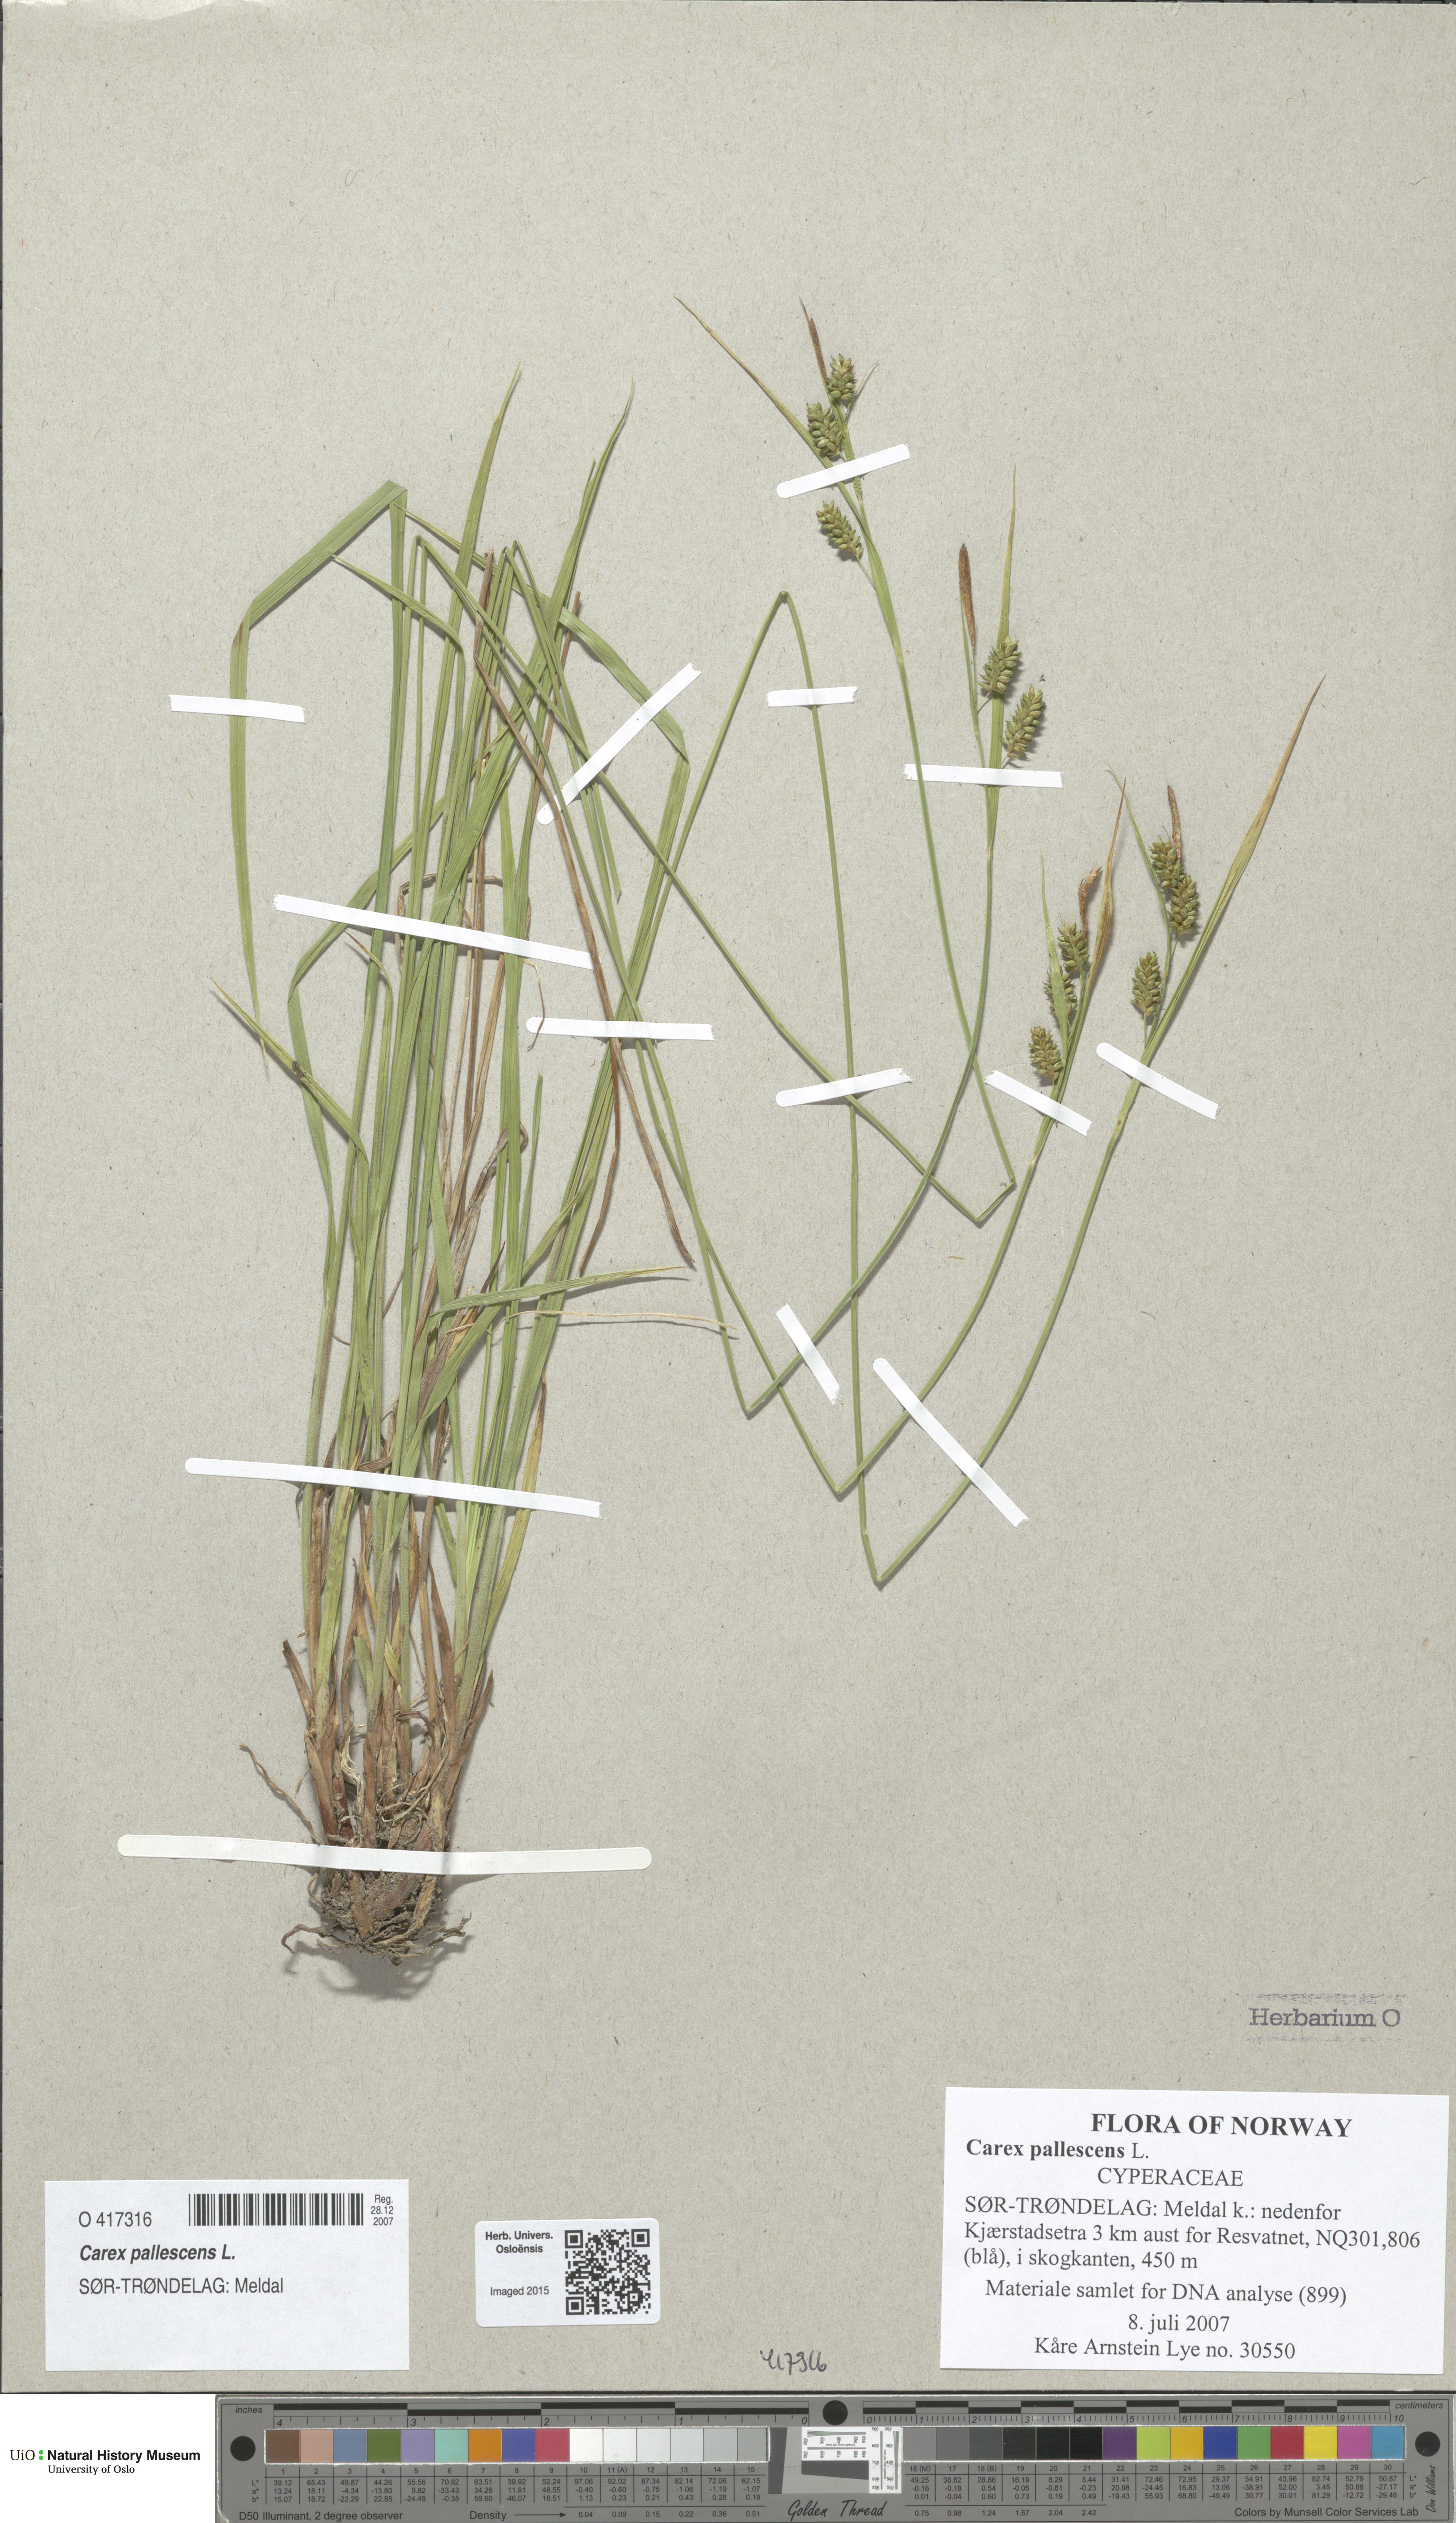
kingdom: Plantae
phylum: Tracheophyta
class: Liliopsida
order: Poales
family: Cyperaceae
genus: Carex
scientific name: Carex pallescens
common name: Pale sedge
